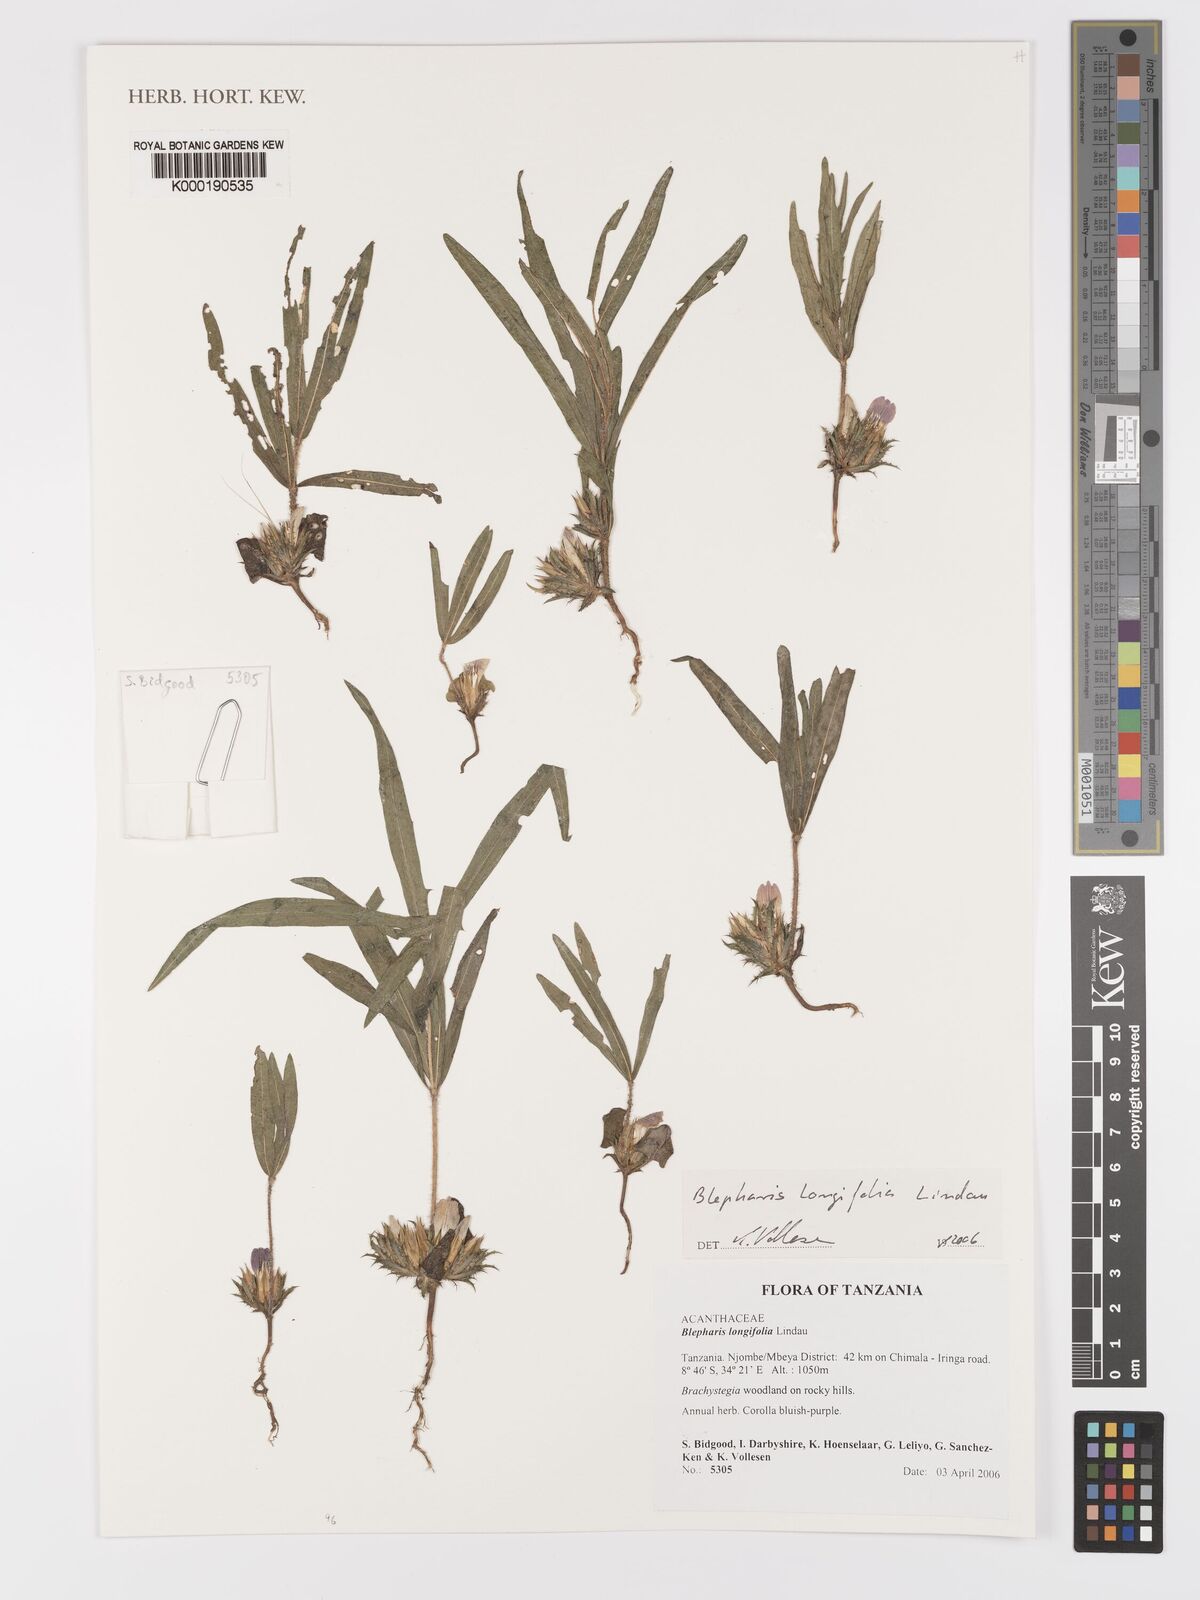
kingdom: Plantae
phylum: Tracheophyta
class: Magnoliopsida
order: Lamiales
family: Acanthaceae
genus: Blepharis
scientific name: Blepharis longifolia
